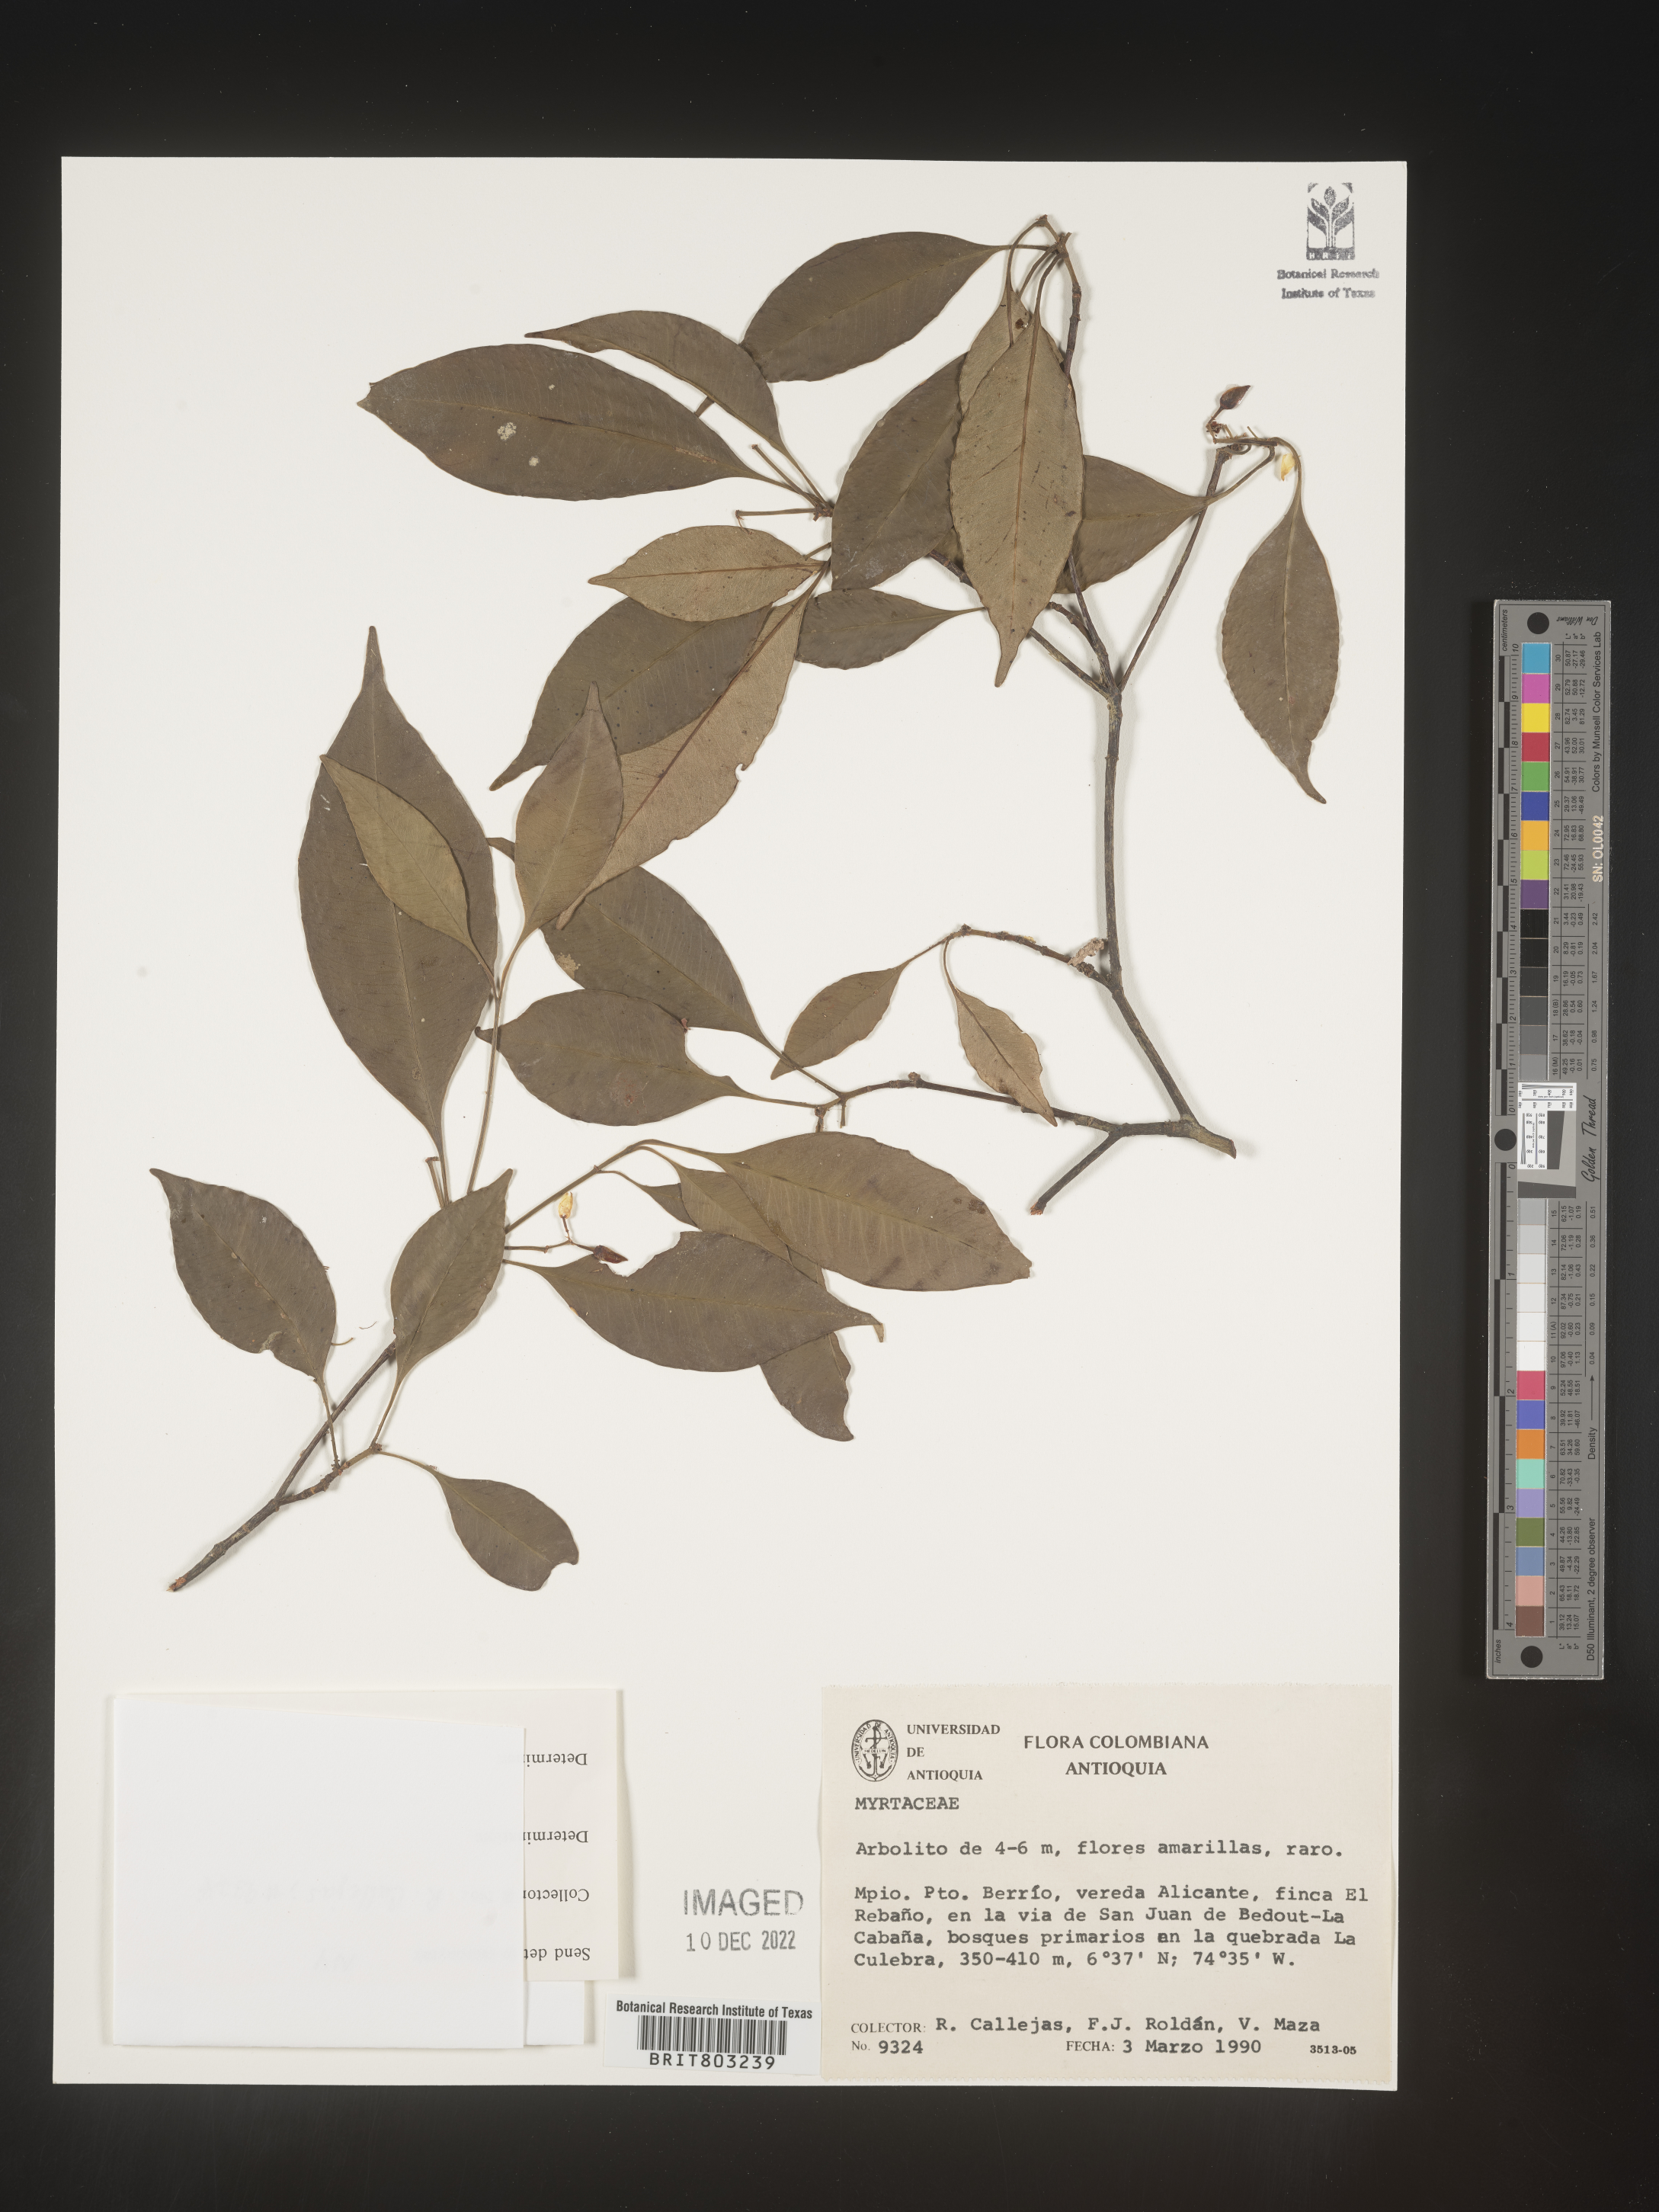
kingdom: Plantae
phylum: Tracheophyta
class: Magnoliopsida
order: Malpighiales
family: Clusiaceae
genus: Tovomita
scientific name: Tovomita
